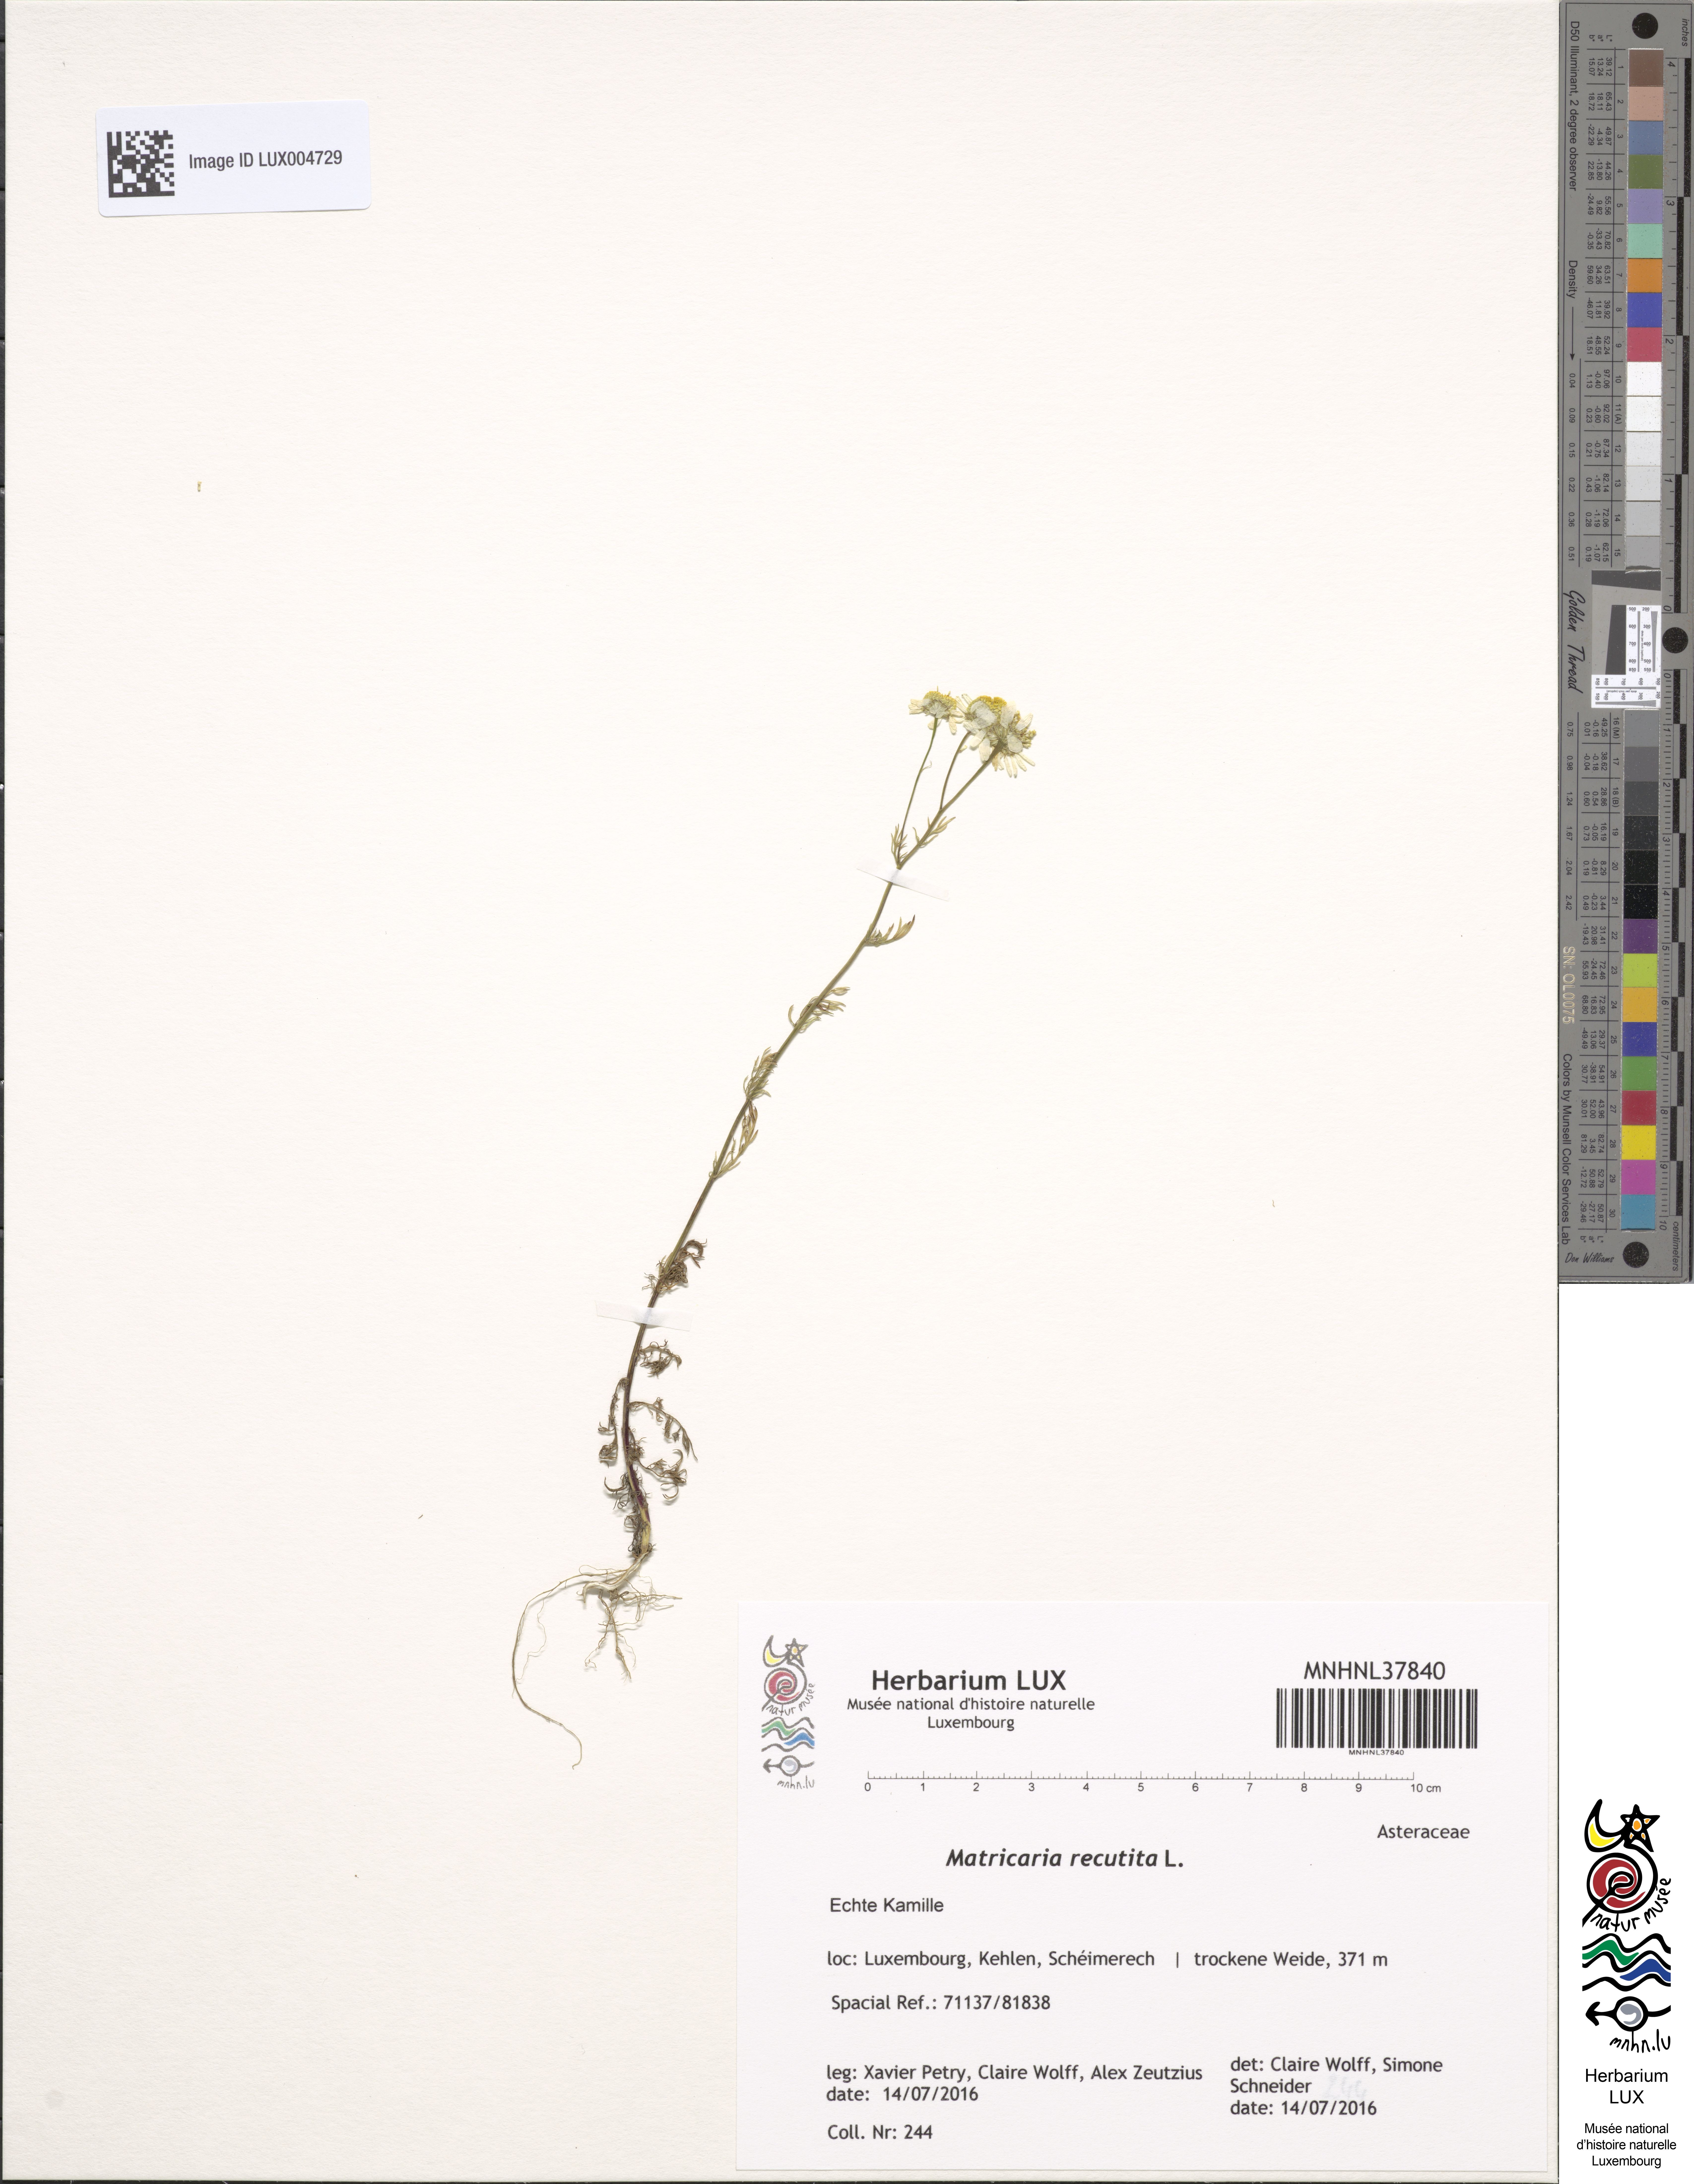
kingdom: Plantae
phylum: Tracheophyta
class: Magnoliopsida
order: Asterales
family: Asteraceae
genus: Matricaria
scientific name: Matricaria chamomilla
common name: Scented mayweed
